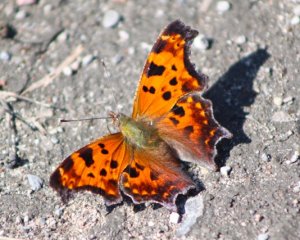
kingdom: Animalia
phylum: Arthropoda
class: Insecta
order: Lepidoptera
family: Nymphalidae
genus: Polygonia
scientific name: Polygonia comma
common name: Eastern Comma
